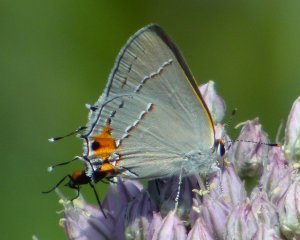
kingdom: Animalia
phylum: Arthropoda
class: Insecta
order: Lepidoptera
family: Lycaenidae
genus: Strymon
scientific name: Strymon melinus
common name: Gray Hairstreak
